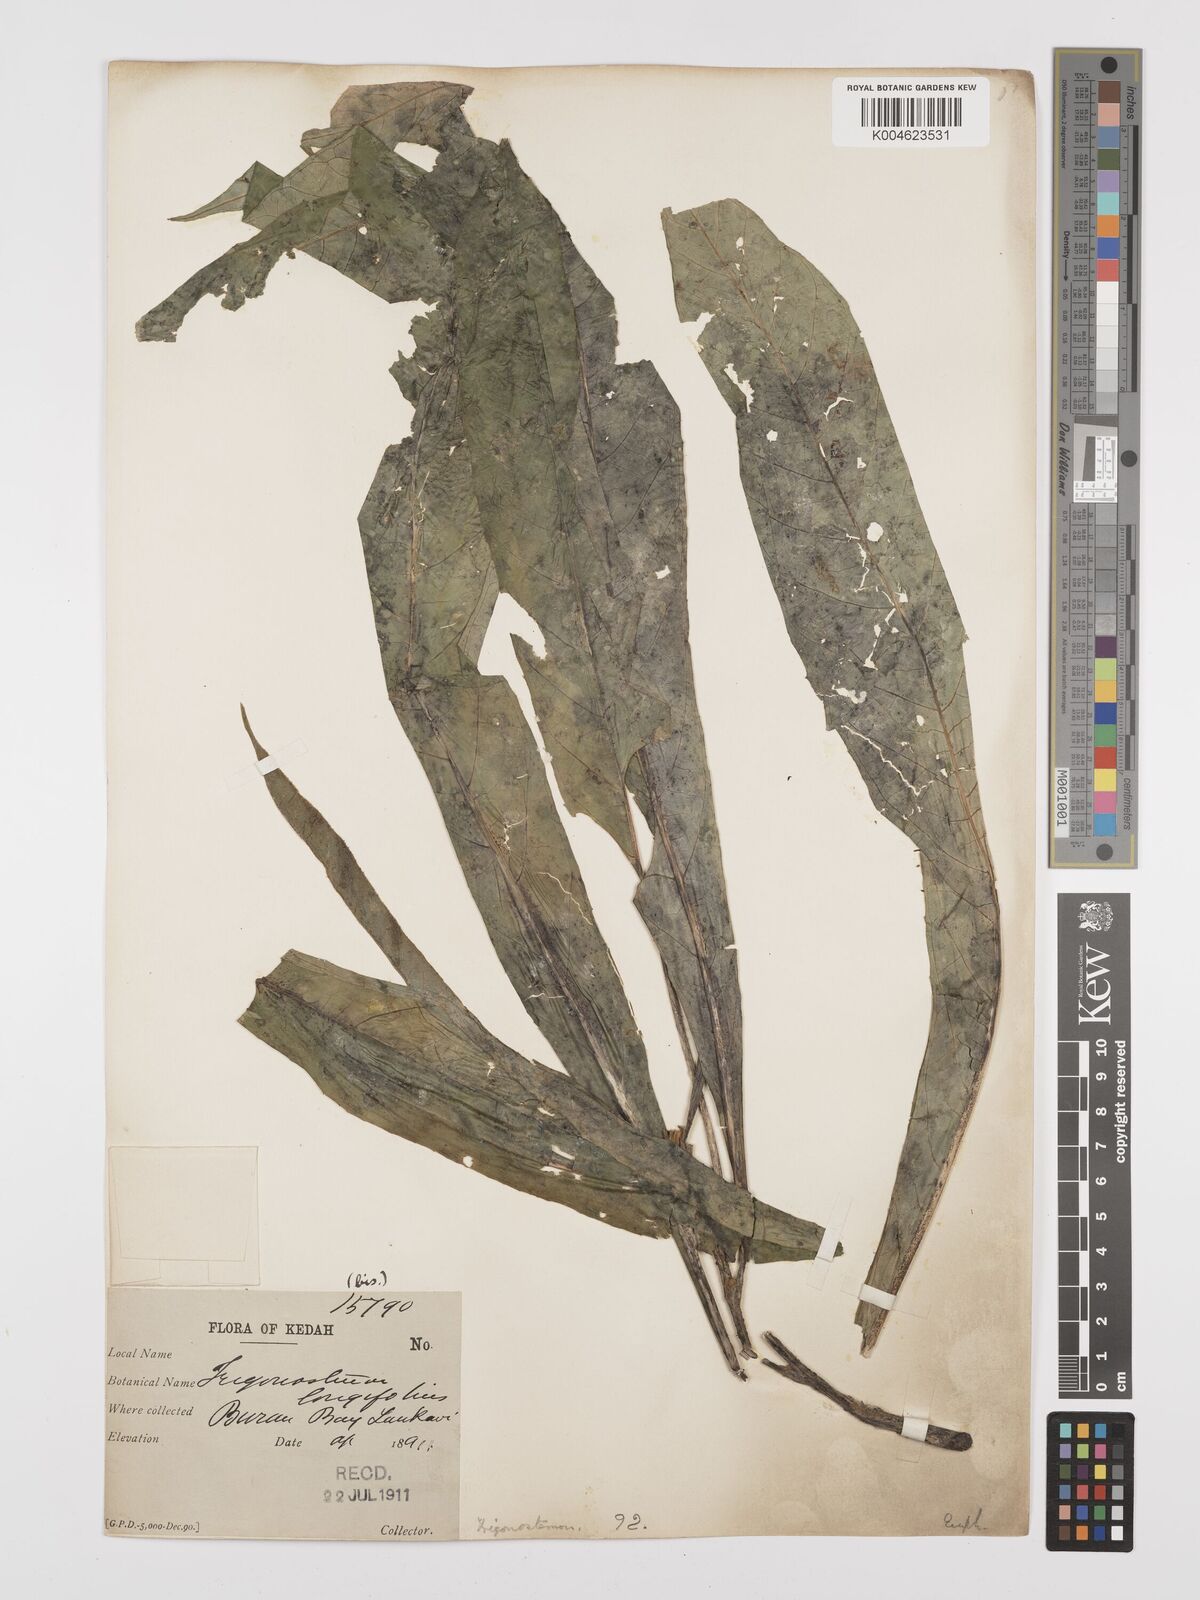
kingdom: Plantae
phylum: Tracheophyta
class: Magnoliopsida
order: Malpighiales
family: Euphorbiaceae
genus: Trigonostemon
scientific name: Trigonostemon longifolius
